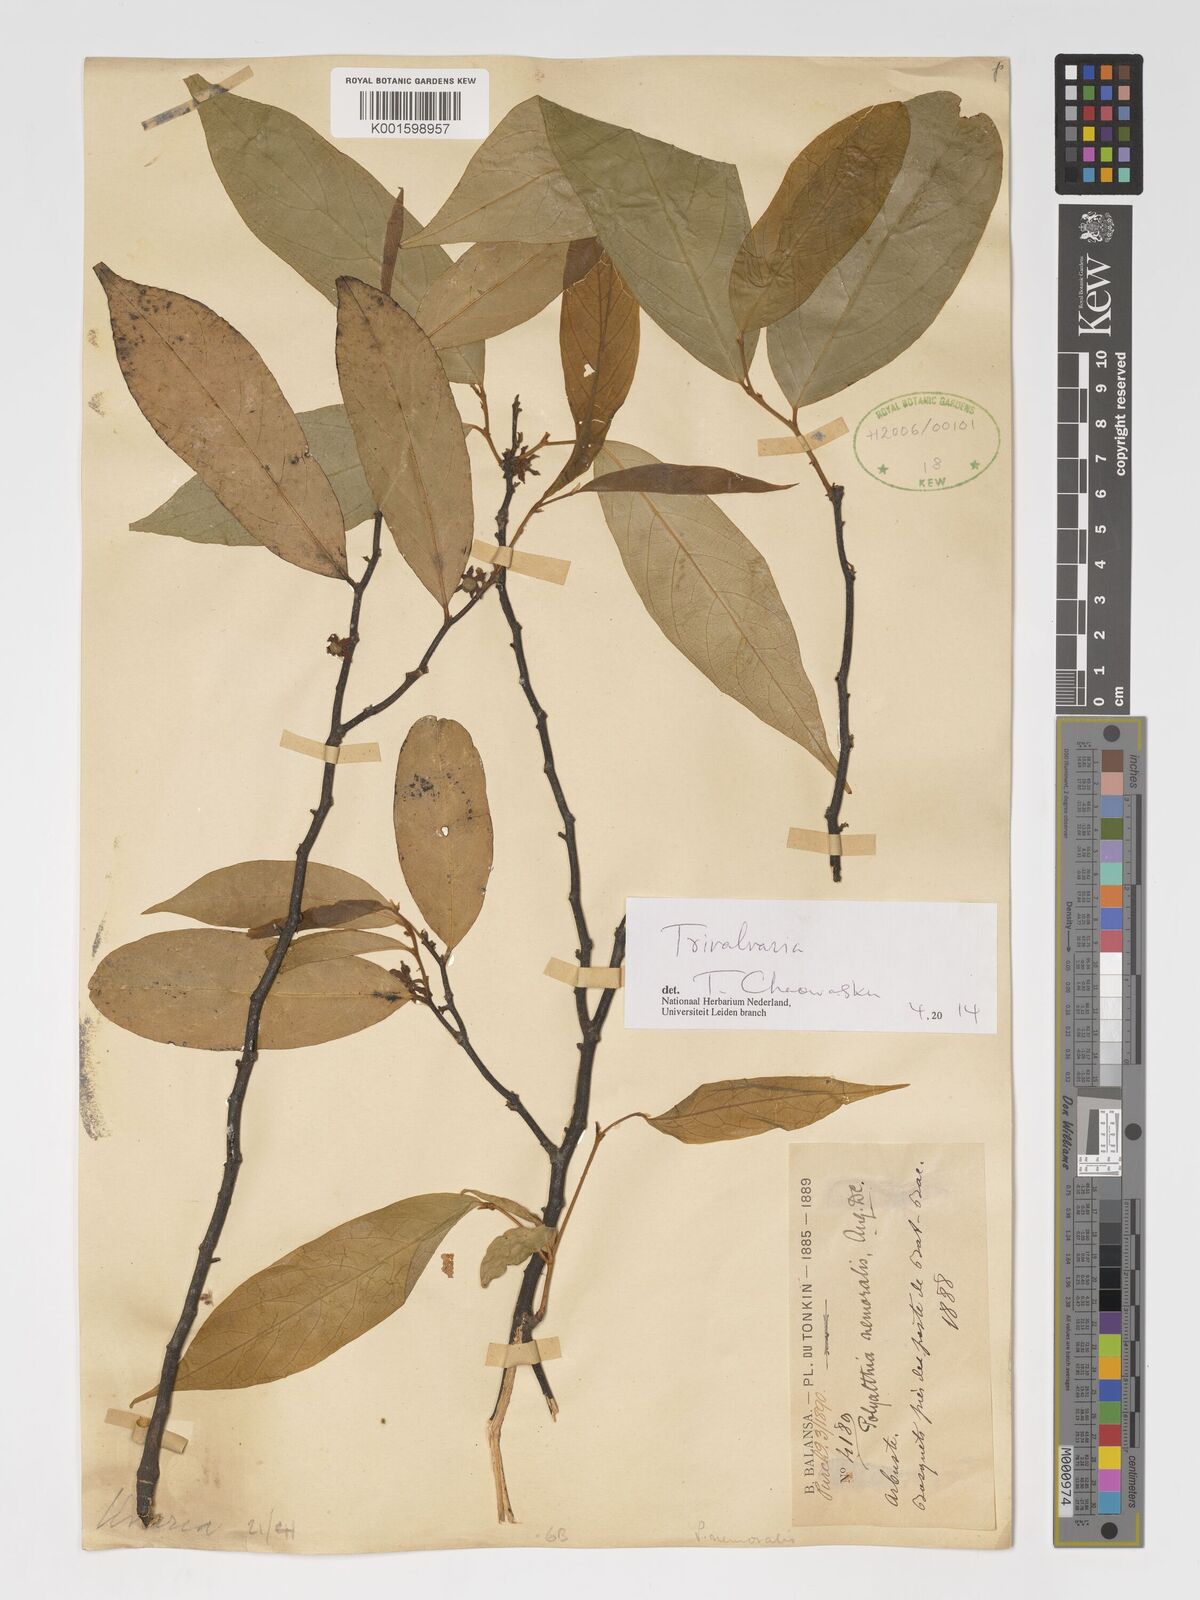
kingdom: Plantae
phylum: Tracheophyta
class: Magnoliopsida
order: Magnoliales
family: Annonaceae
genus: Trivalvaria
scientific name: Trivalvaria
